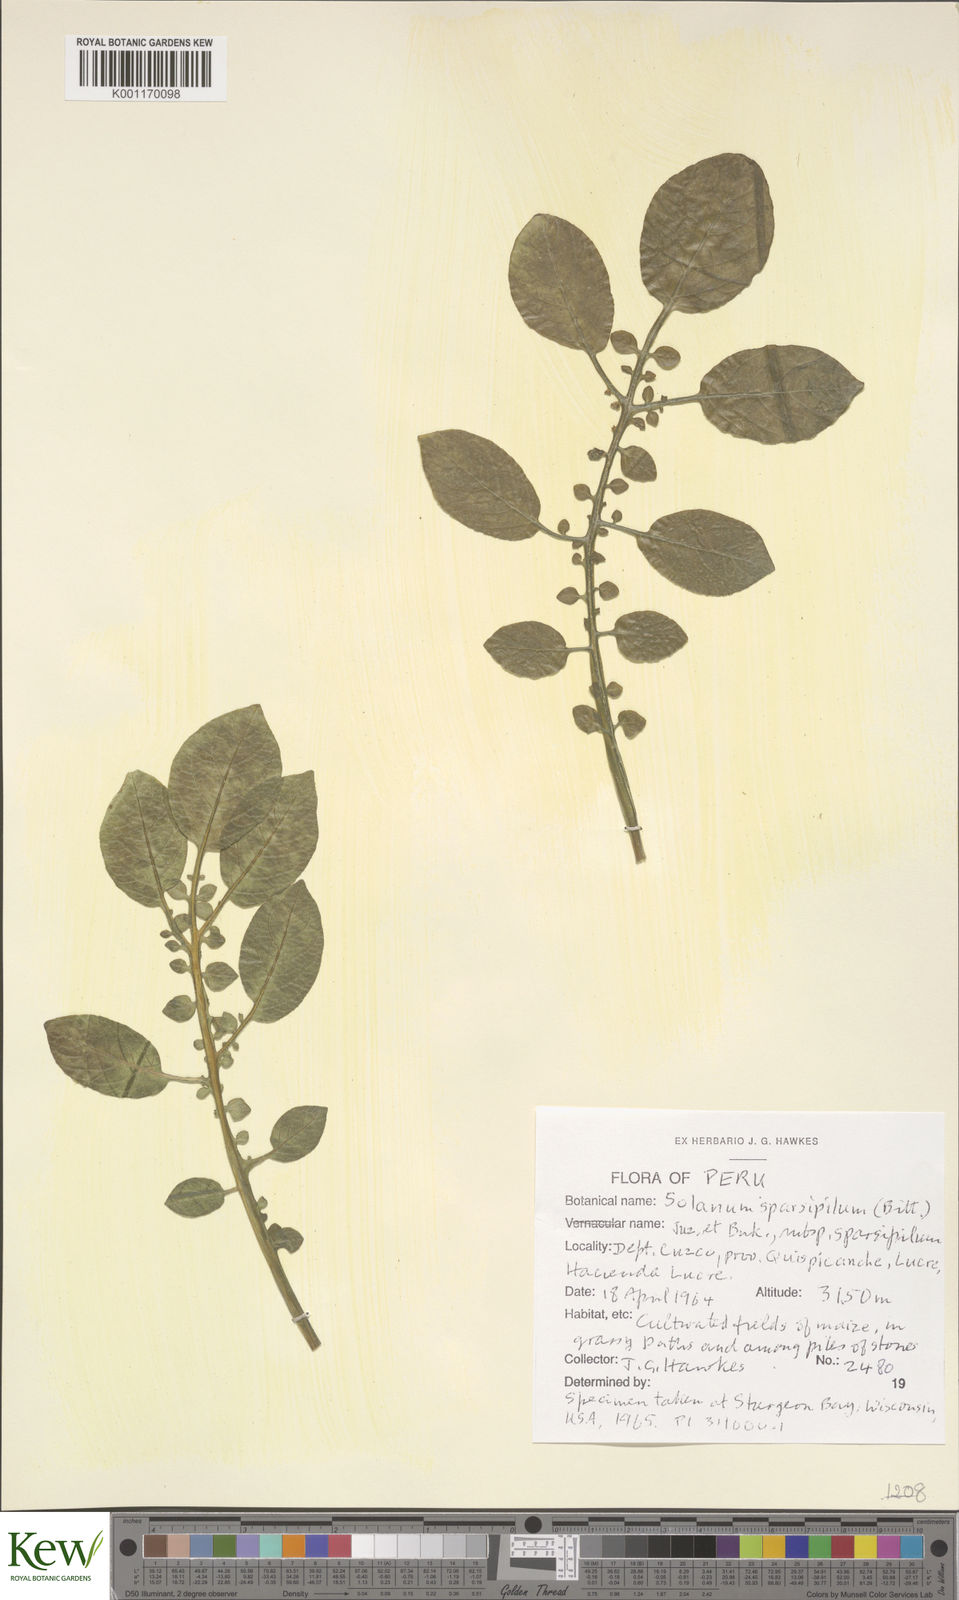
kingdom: Plantae
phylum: Tracheophyta
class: Magnoliopsida
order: Solanales
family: Solanaceae
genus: Solanum
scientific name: Solanum brevicaule
